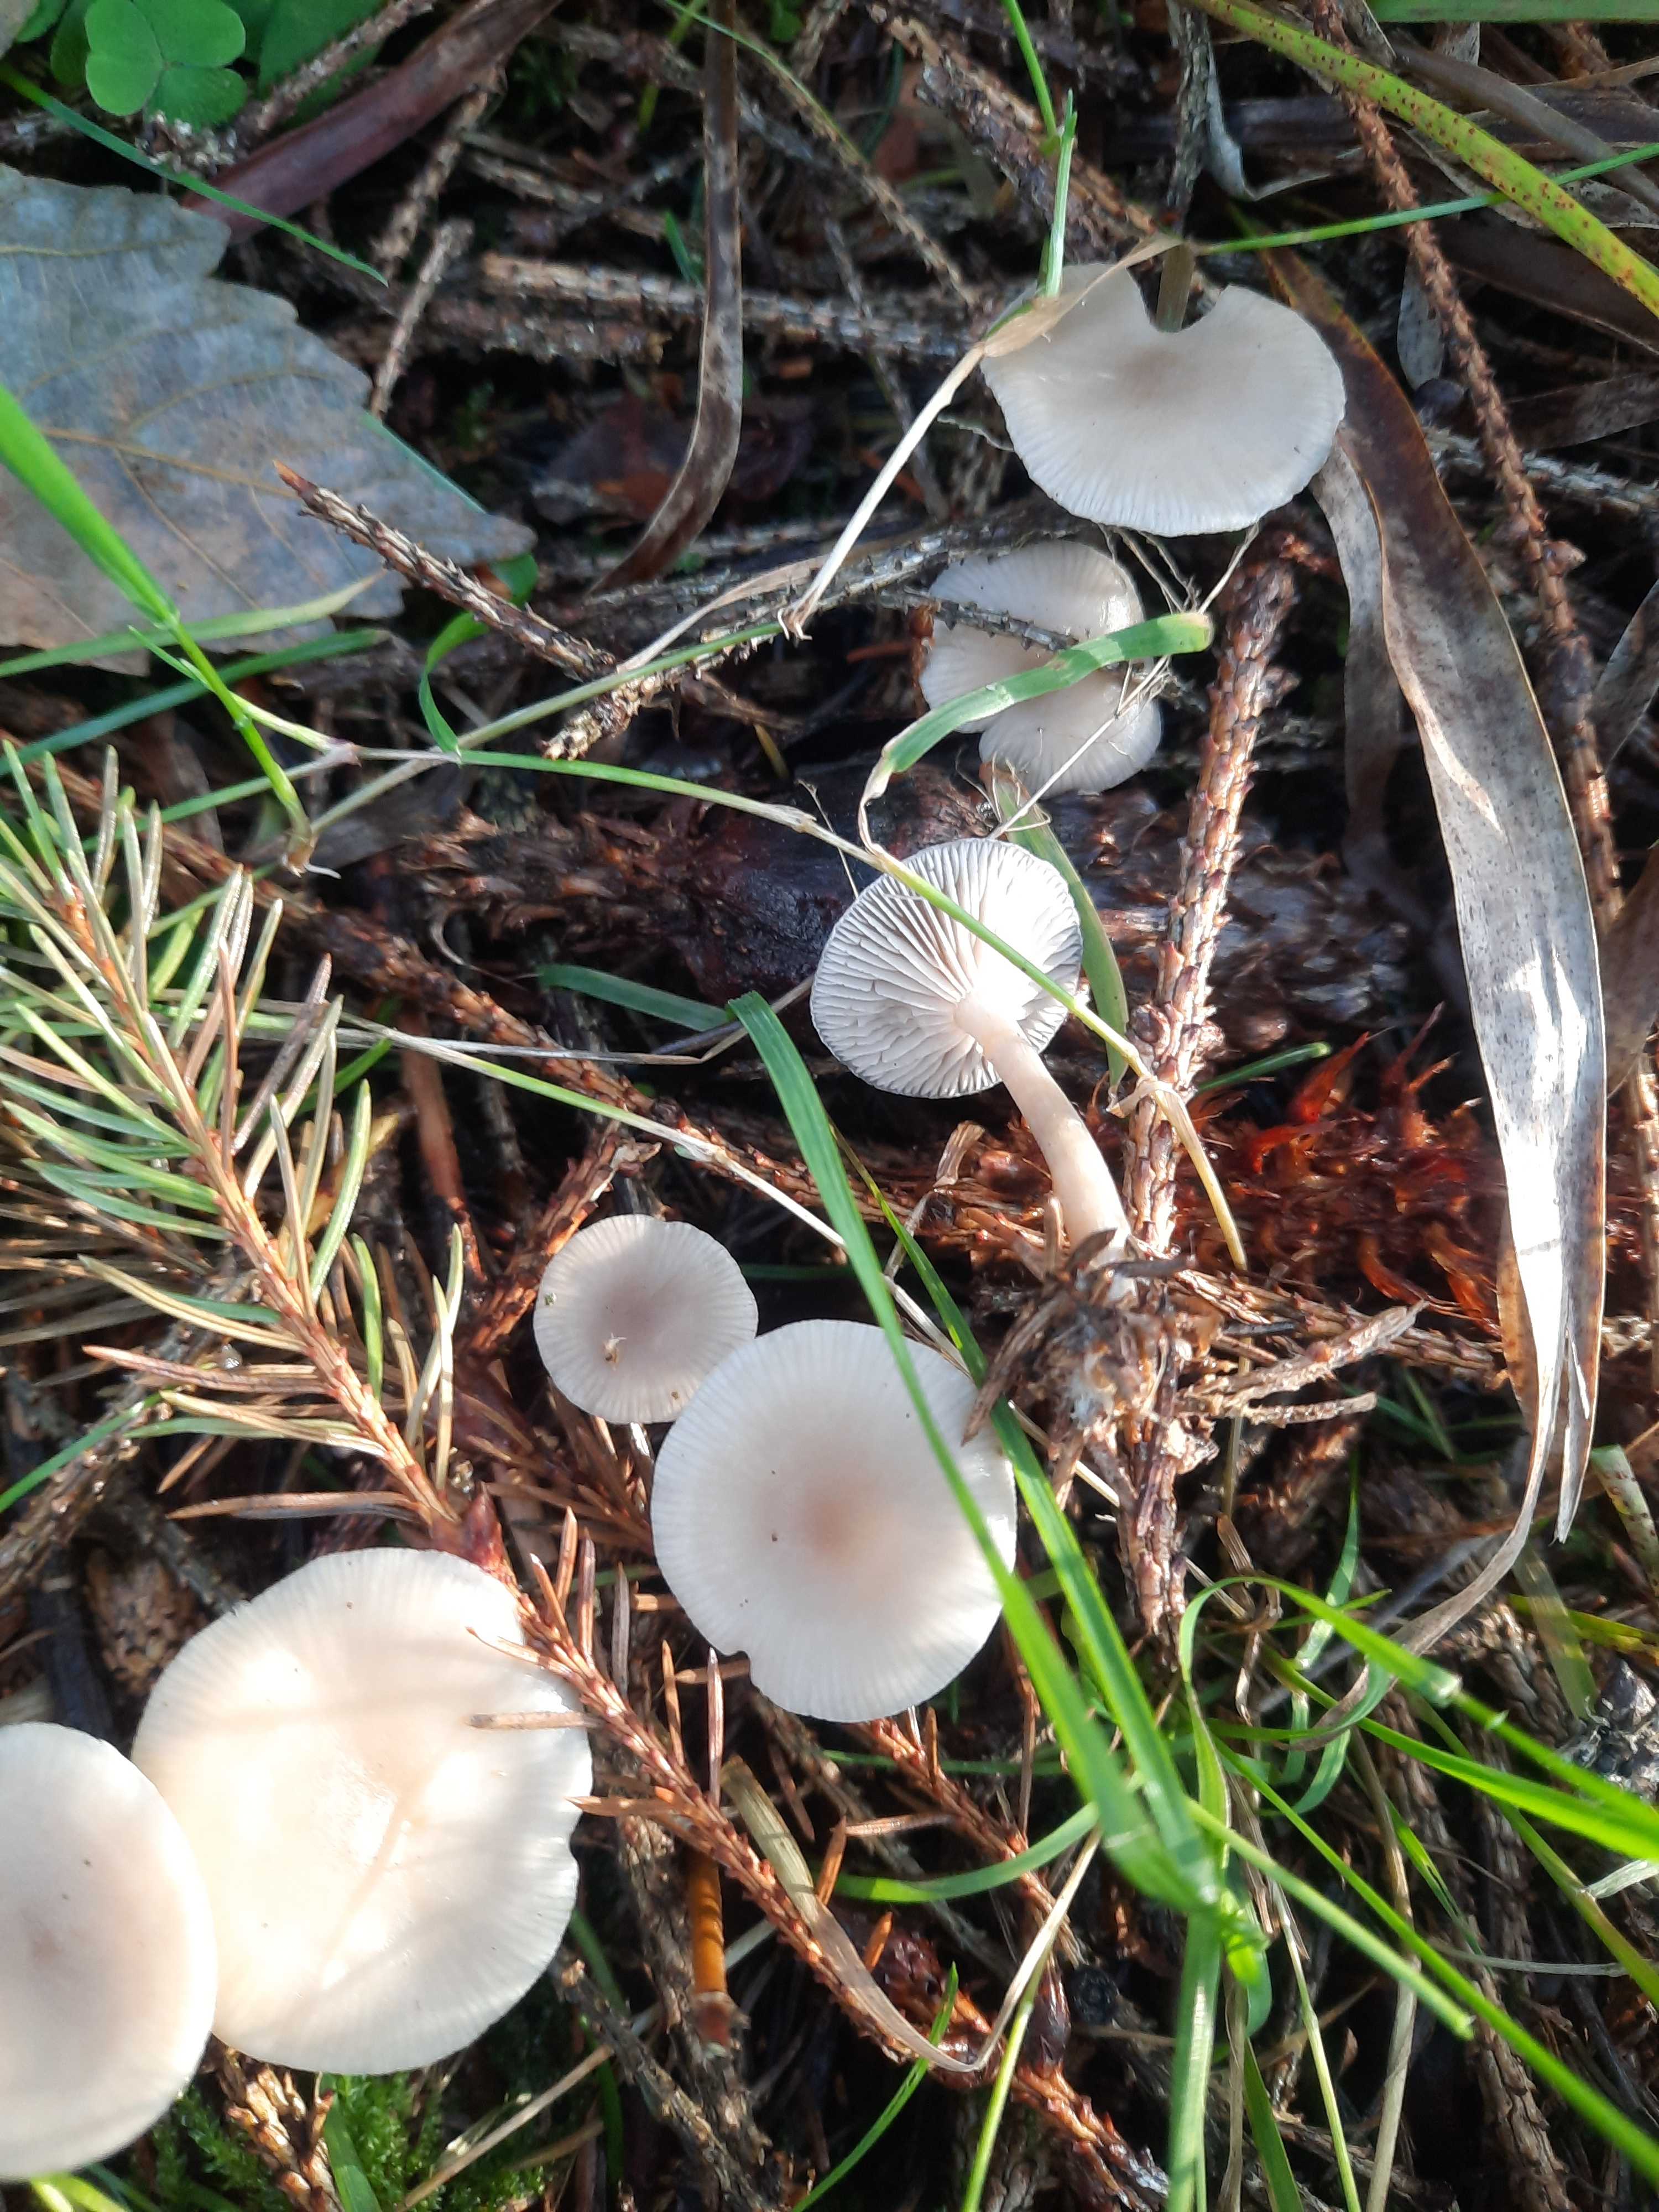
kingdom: Fungi
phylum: Basidiomycota
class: Agaricomycetes
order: Agaricales
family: Tricholomataceae
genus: Clitocybe
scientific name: Clitocybe
